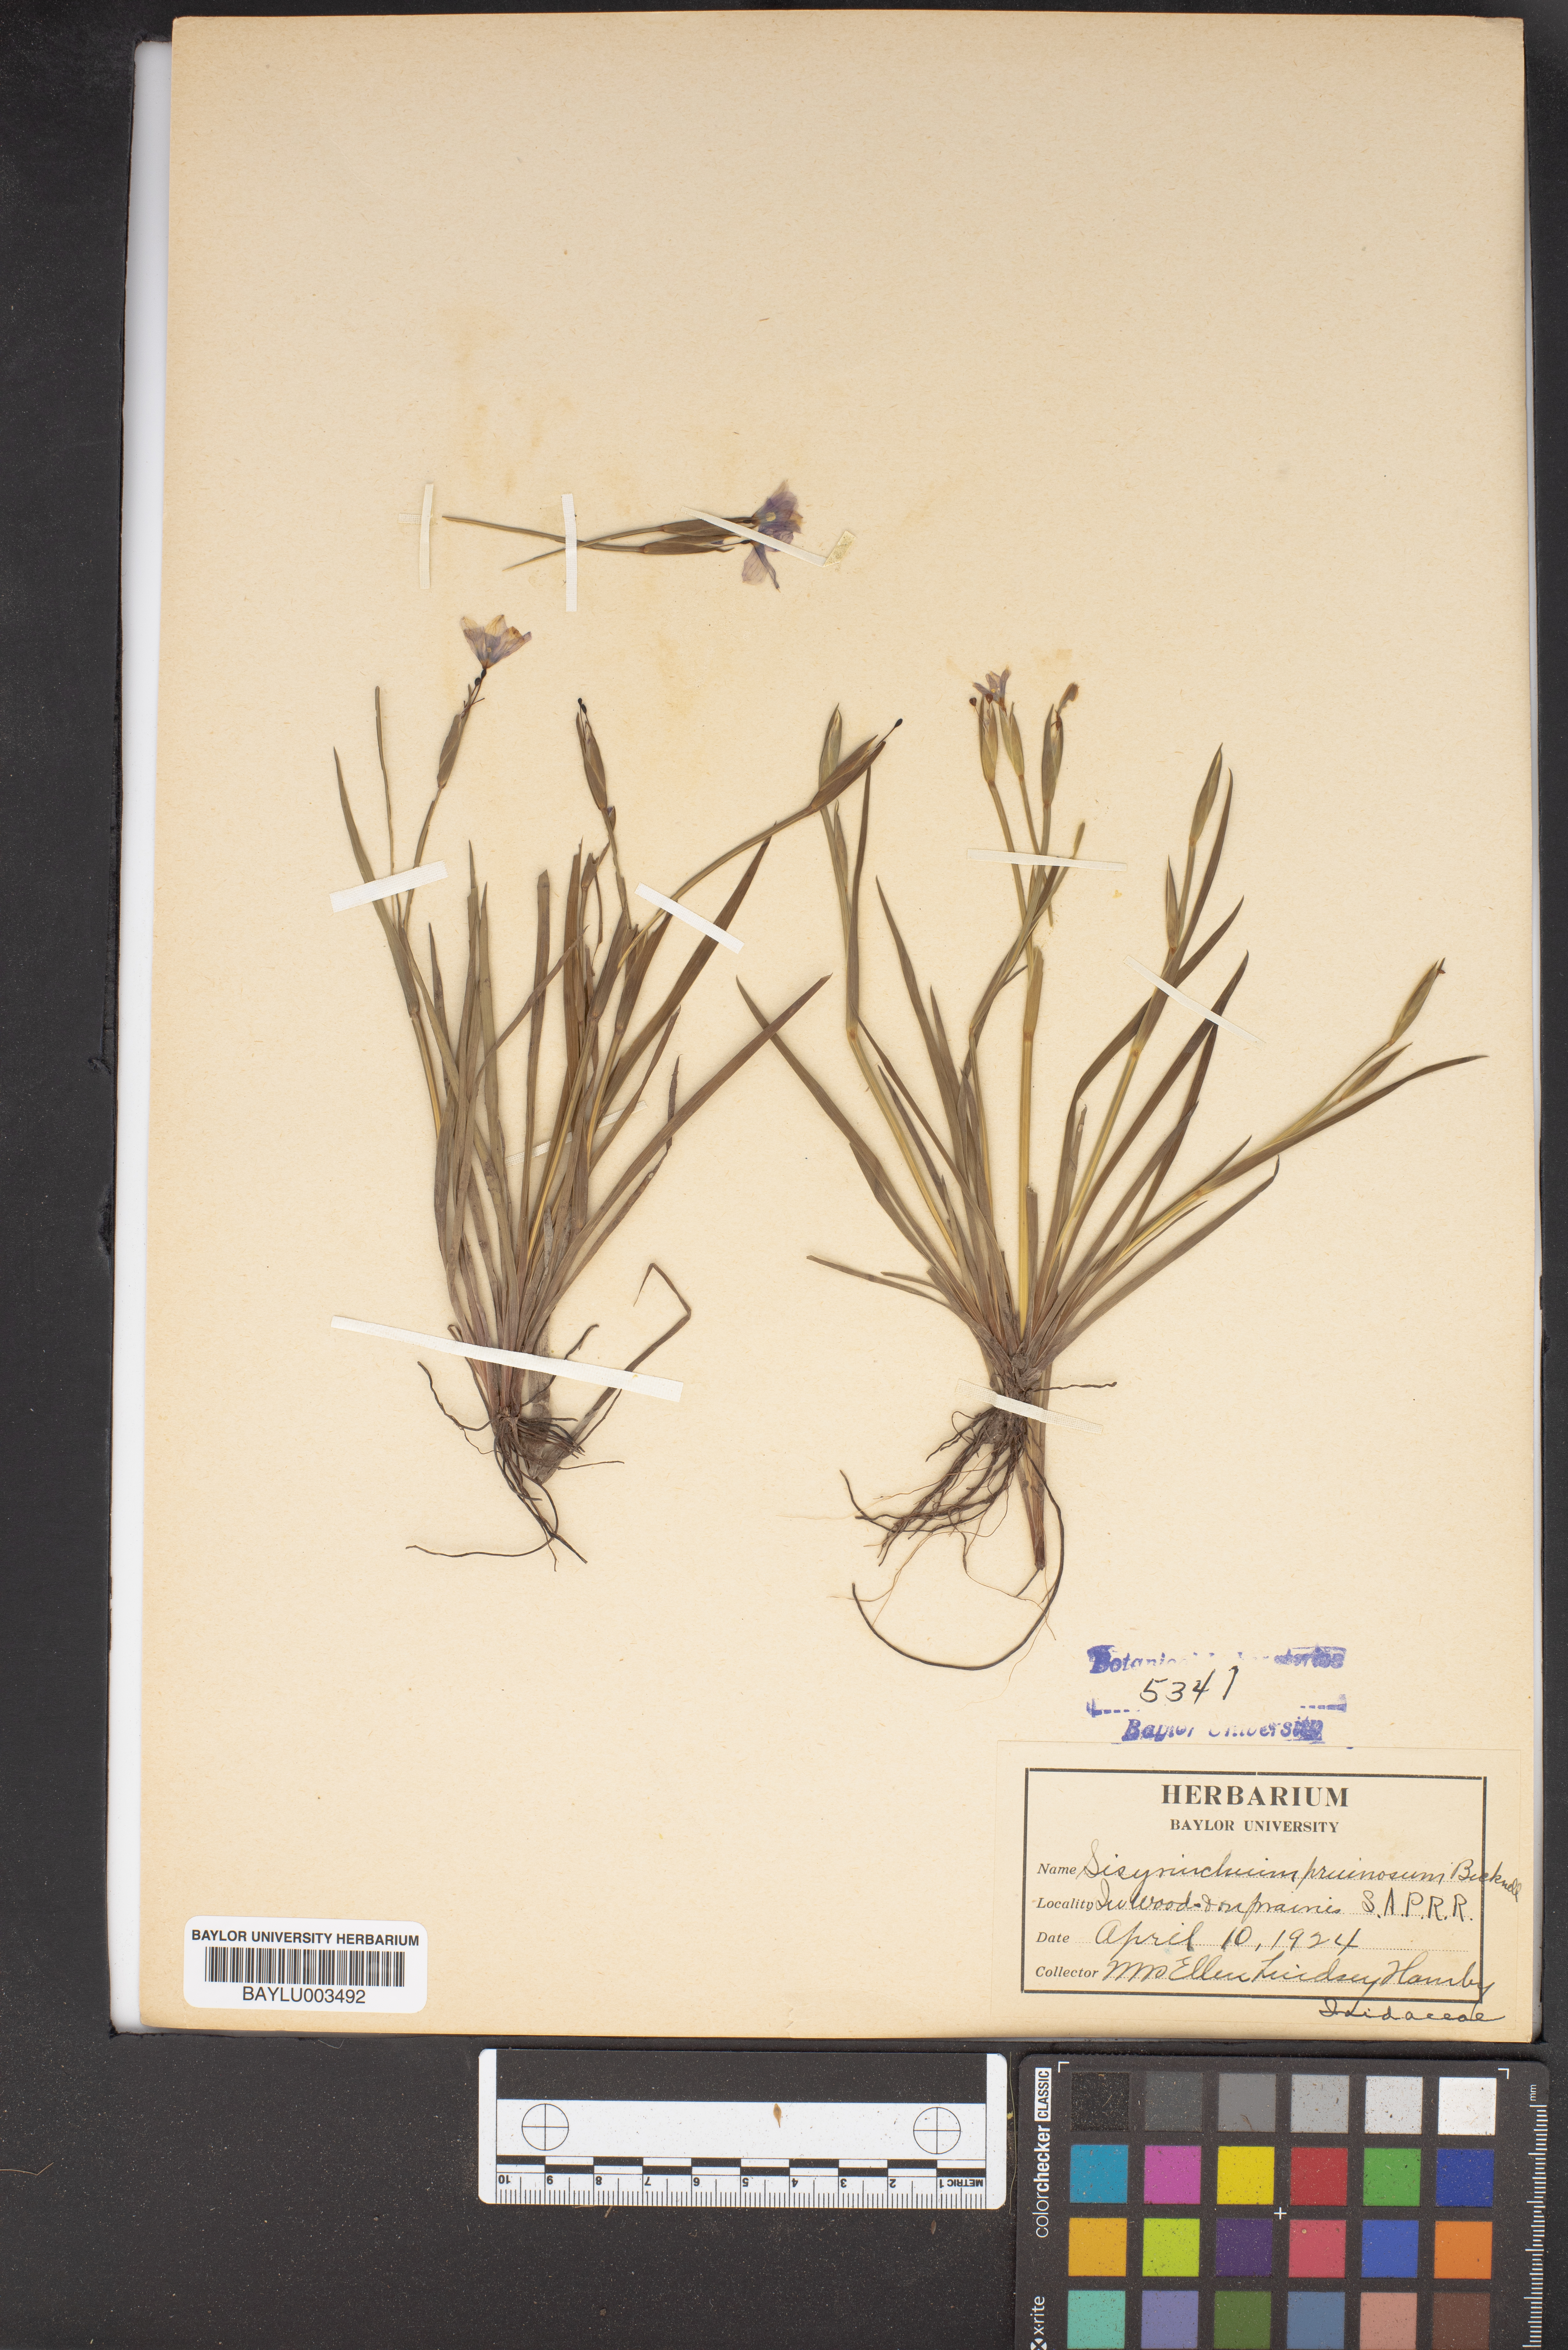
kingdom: Plantae
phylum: Tracheophyta
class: Liliopsida
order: Asparagales
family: Iridaceae
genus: Sisyrinchium
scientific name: Sisyrinchium pruinosum
